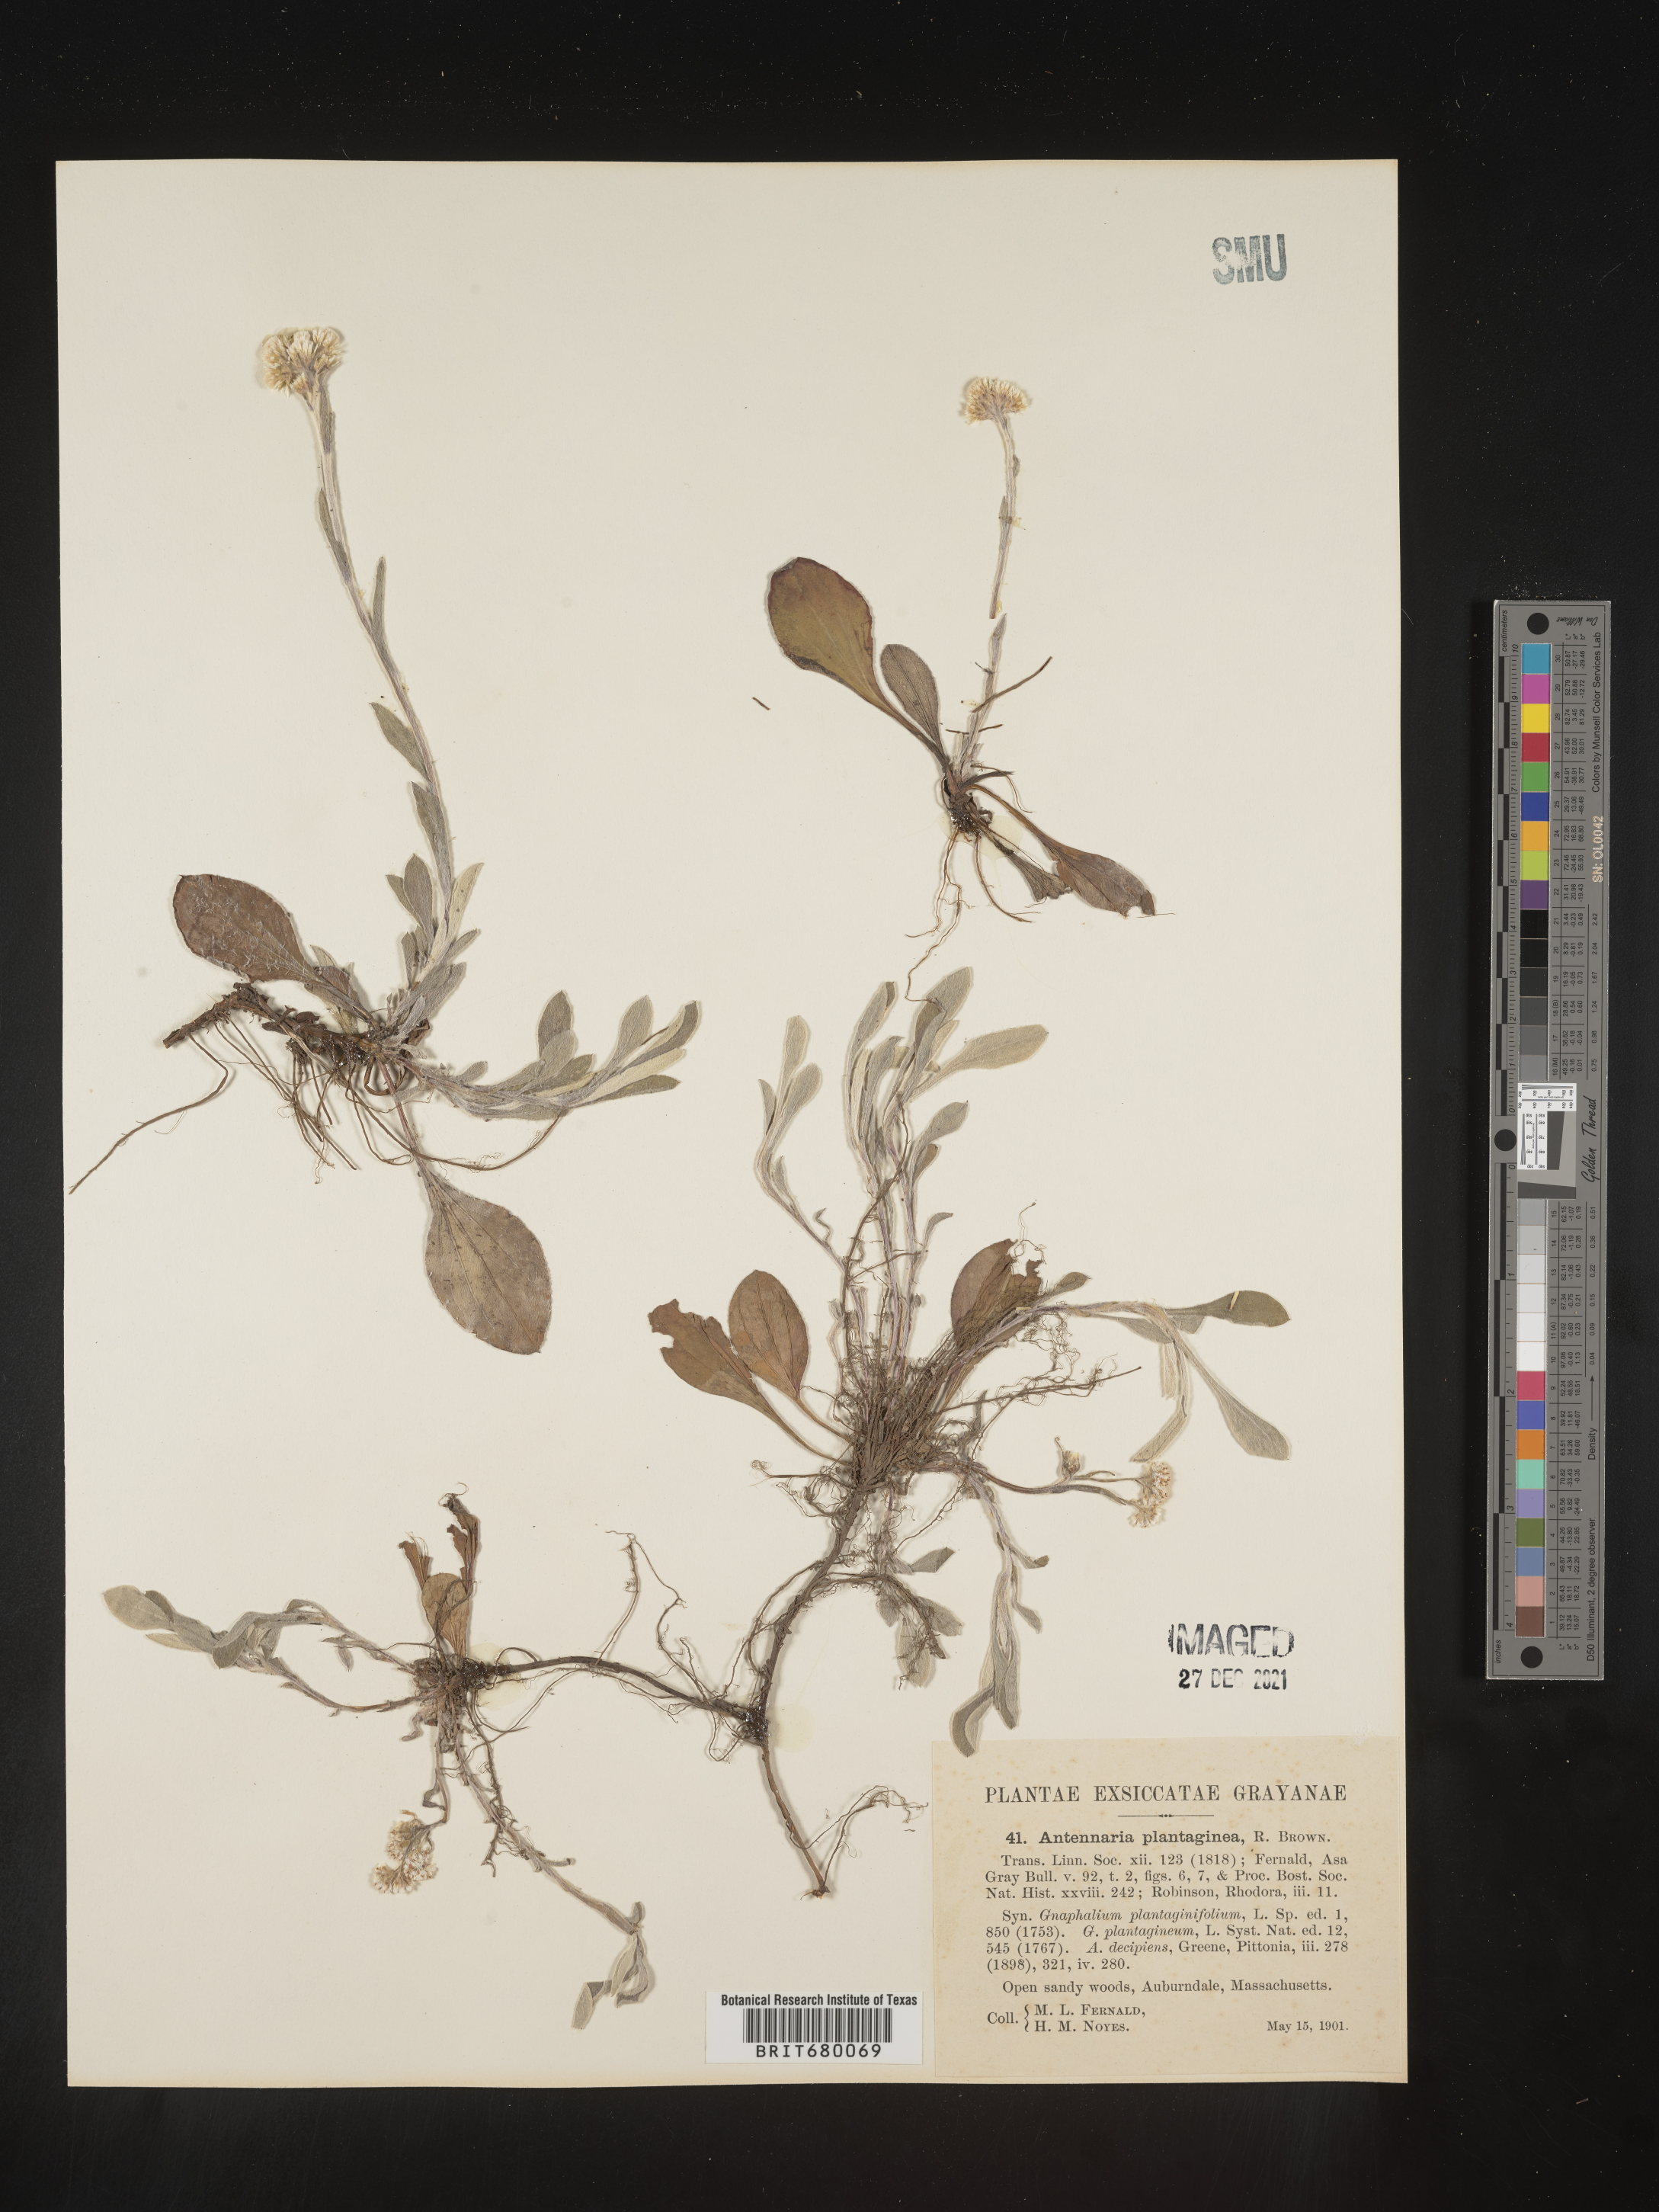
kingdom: Plantae
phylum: Tracheophyta
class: Magnoliopsida
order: Asterales
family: Asteraceae
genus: Antennaria
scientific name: Antennaria plantaginifolia
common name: Plantain-leaved pussytoes
